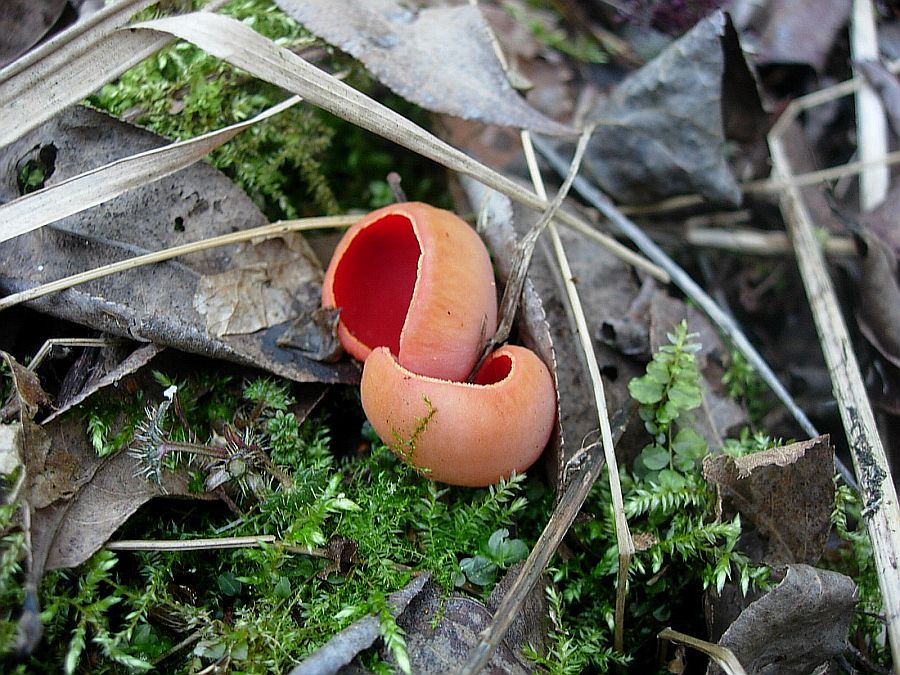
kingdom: Fungi
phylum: Ascomycota
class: Pezizomycetes
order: Pezizales
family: Sarcoscyphaceae
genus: Sarcoscypha
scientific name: Sarcoscypha austriaca
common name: krølhåret pragtbæger
